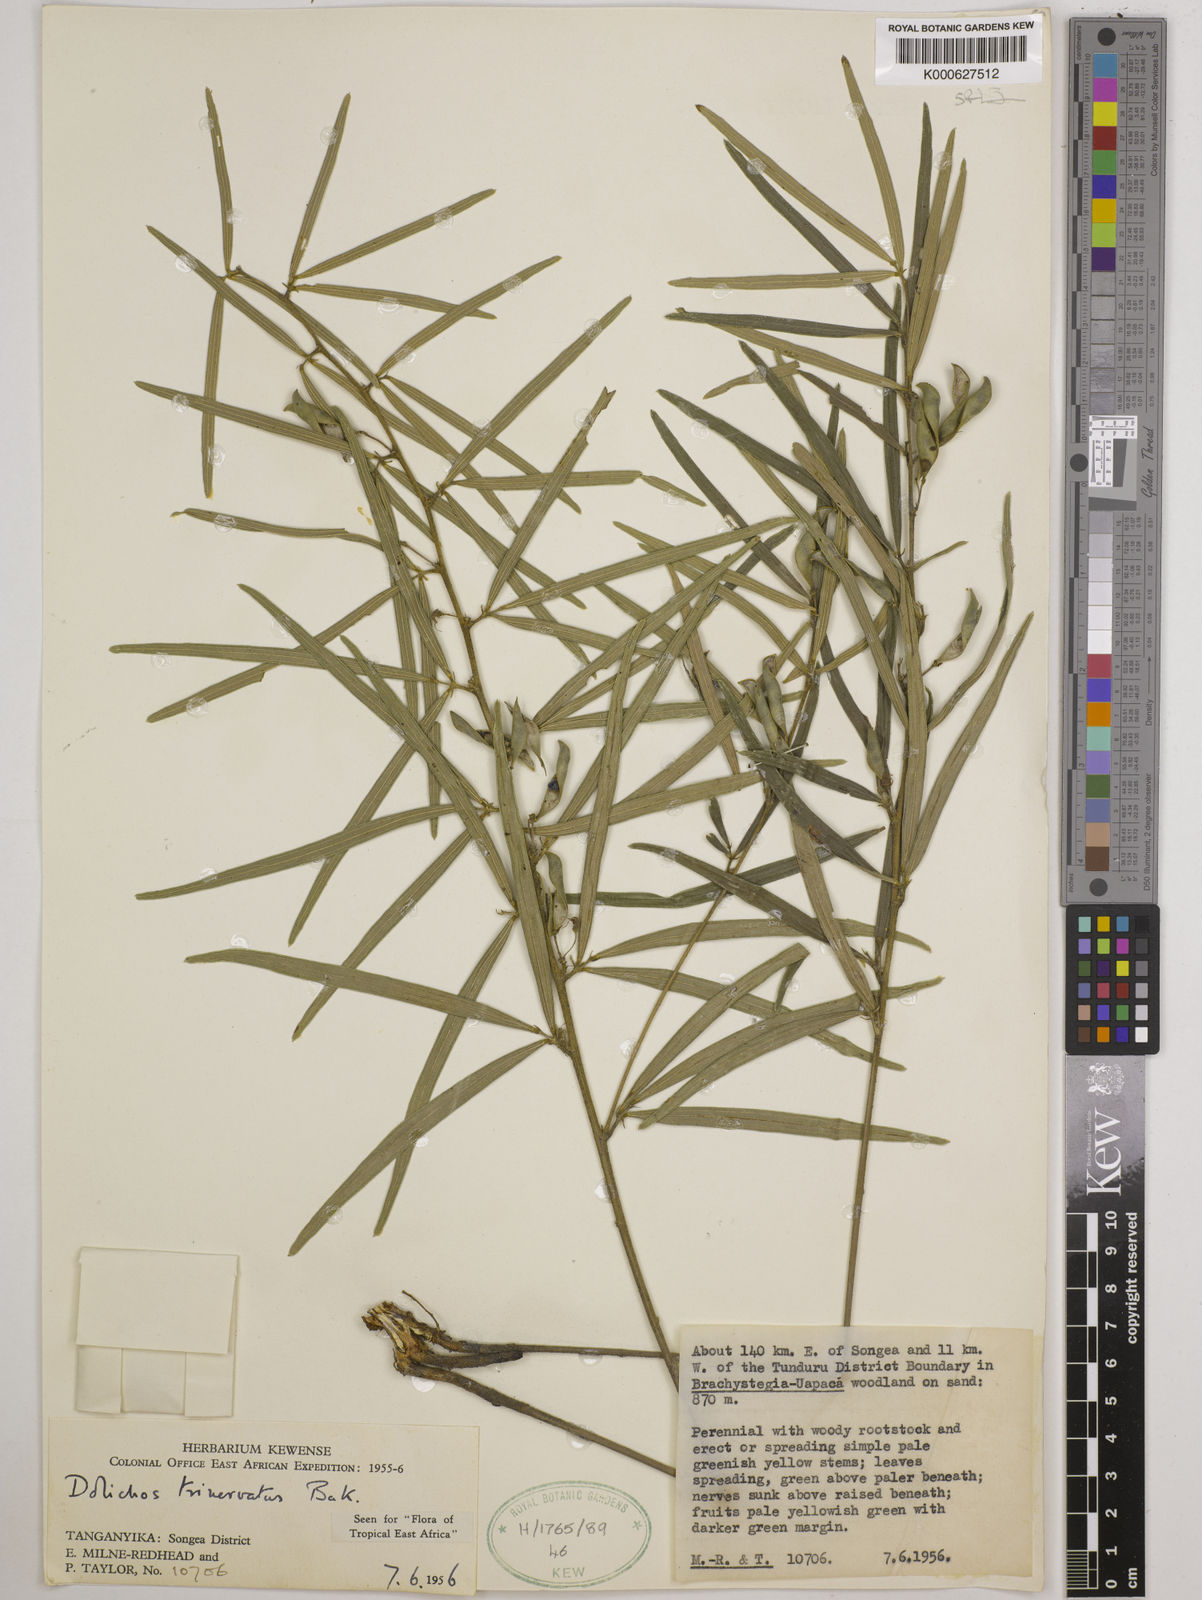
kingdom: Plantae
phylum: Tracheophyta
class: Magnoliopsida
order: Fabales
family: Fabaceae
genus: Dolichos
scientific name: Dolichos trinervatus
